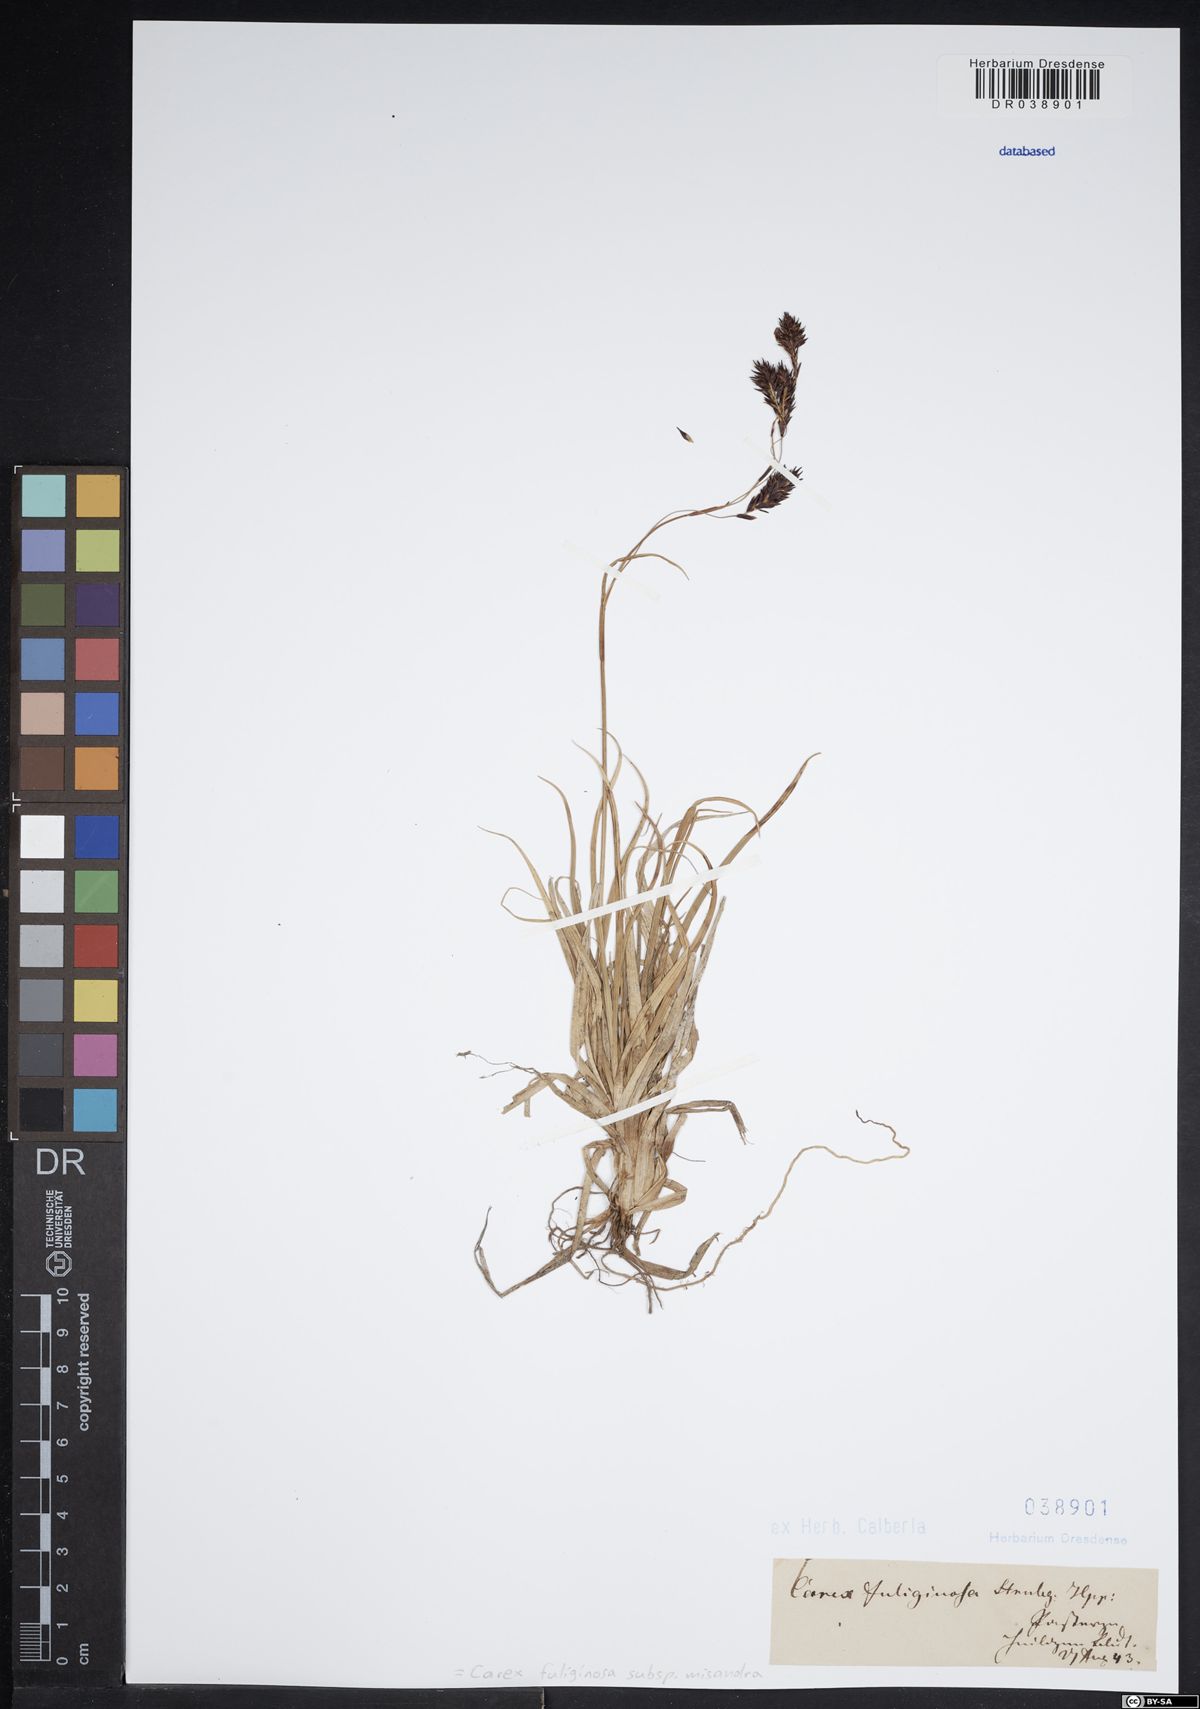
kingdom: Plantae
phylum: Tracheophyta
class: Liliopsida
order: Poales
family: Cyperaceae
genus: Carex
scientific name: Carex fuliginosa
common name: Few-flowered sedge
